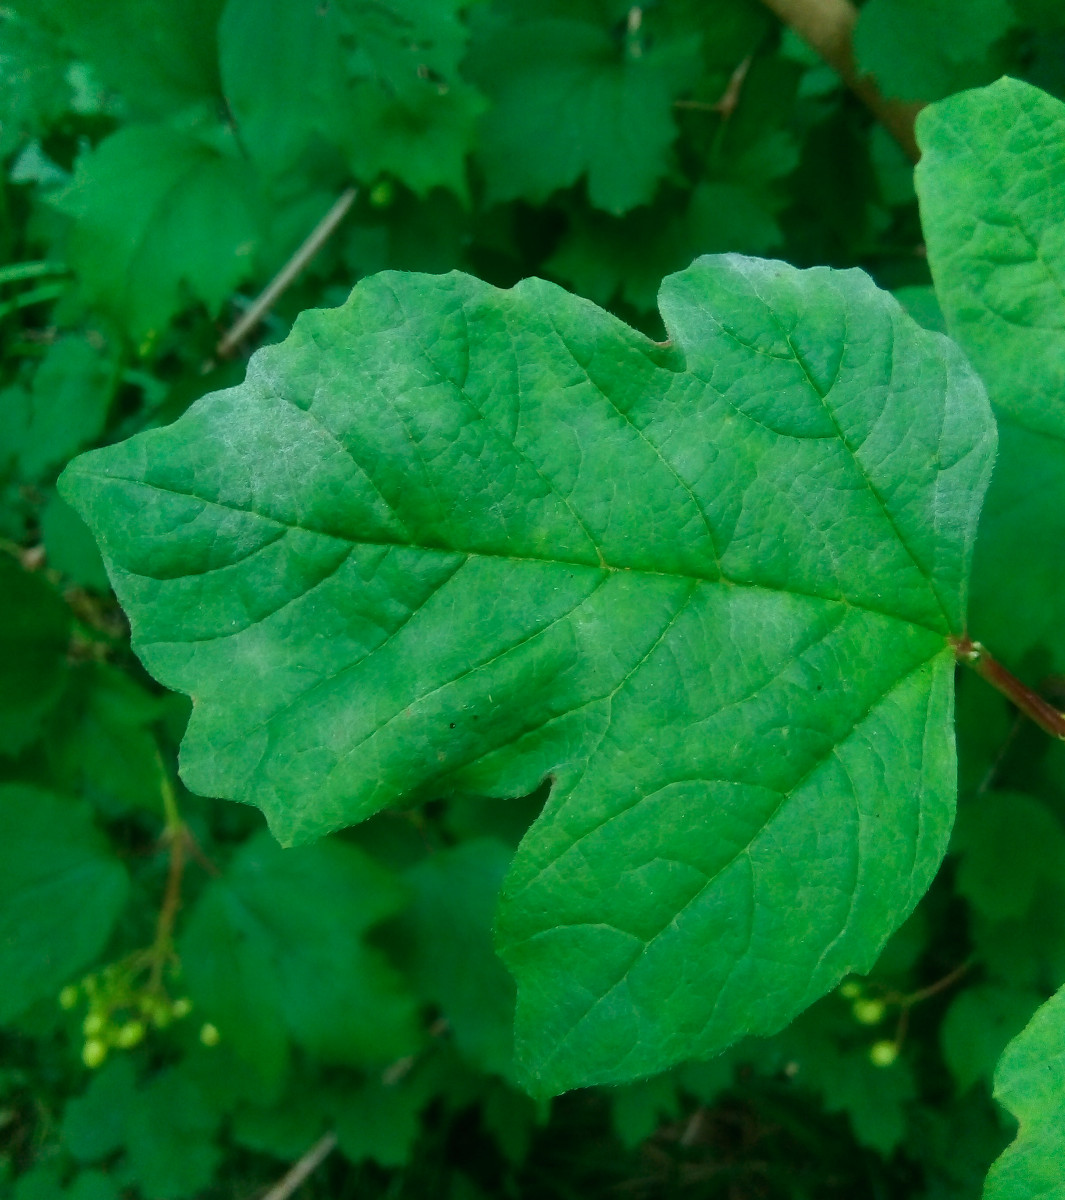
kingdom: Fungi
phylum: Ascomycota
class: Leotiomycetes
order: Helotiales
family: Erysiphaceae
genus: Erysiphe
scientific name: Erysiphe viburni
